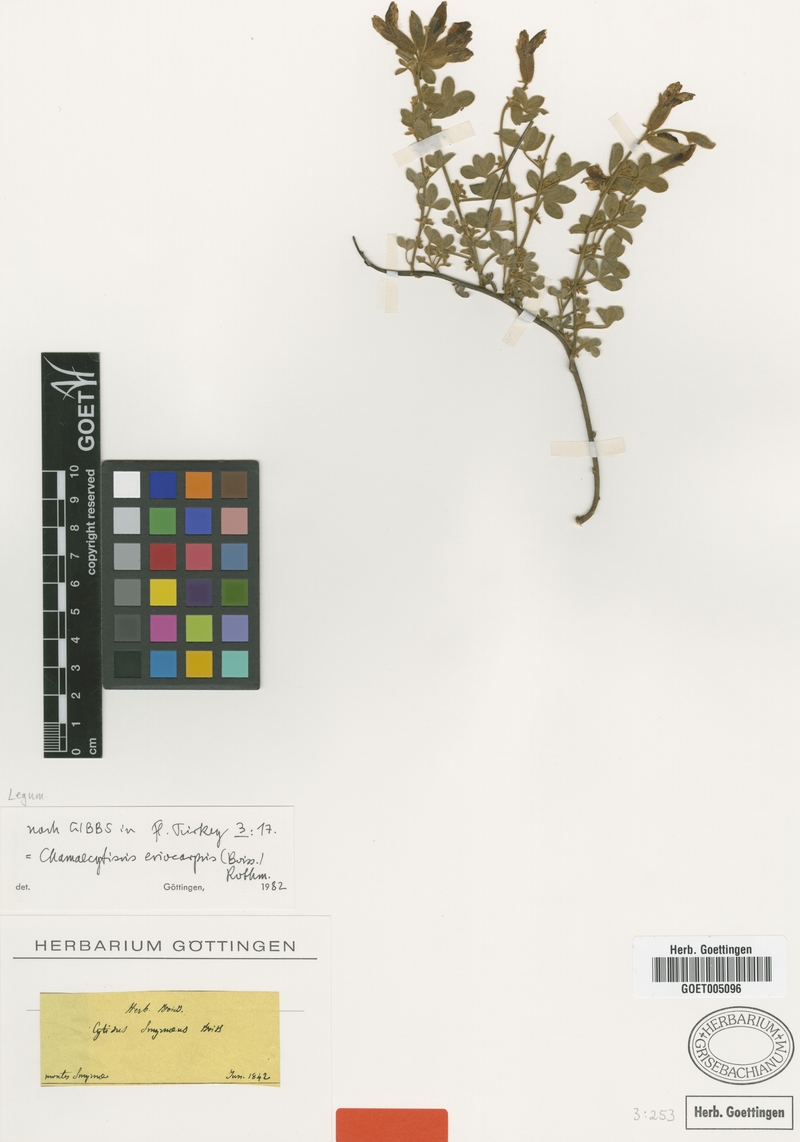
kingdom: Plantae
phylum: Tracheophyta
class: Magnoliopsida
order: Fabales
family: Fabaceae
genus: Chamaecytisus
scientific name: Chamaecytisus eriocarpus
